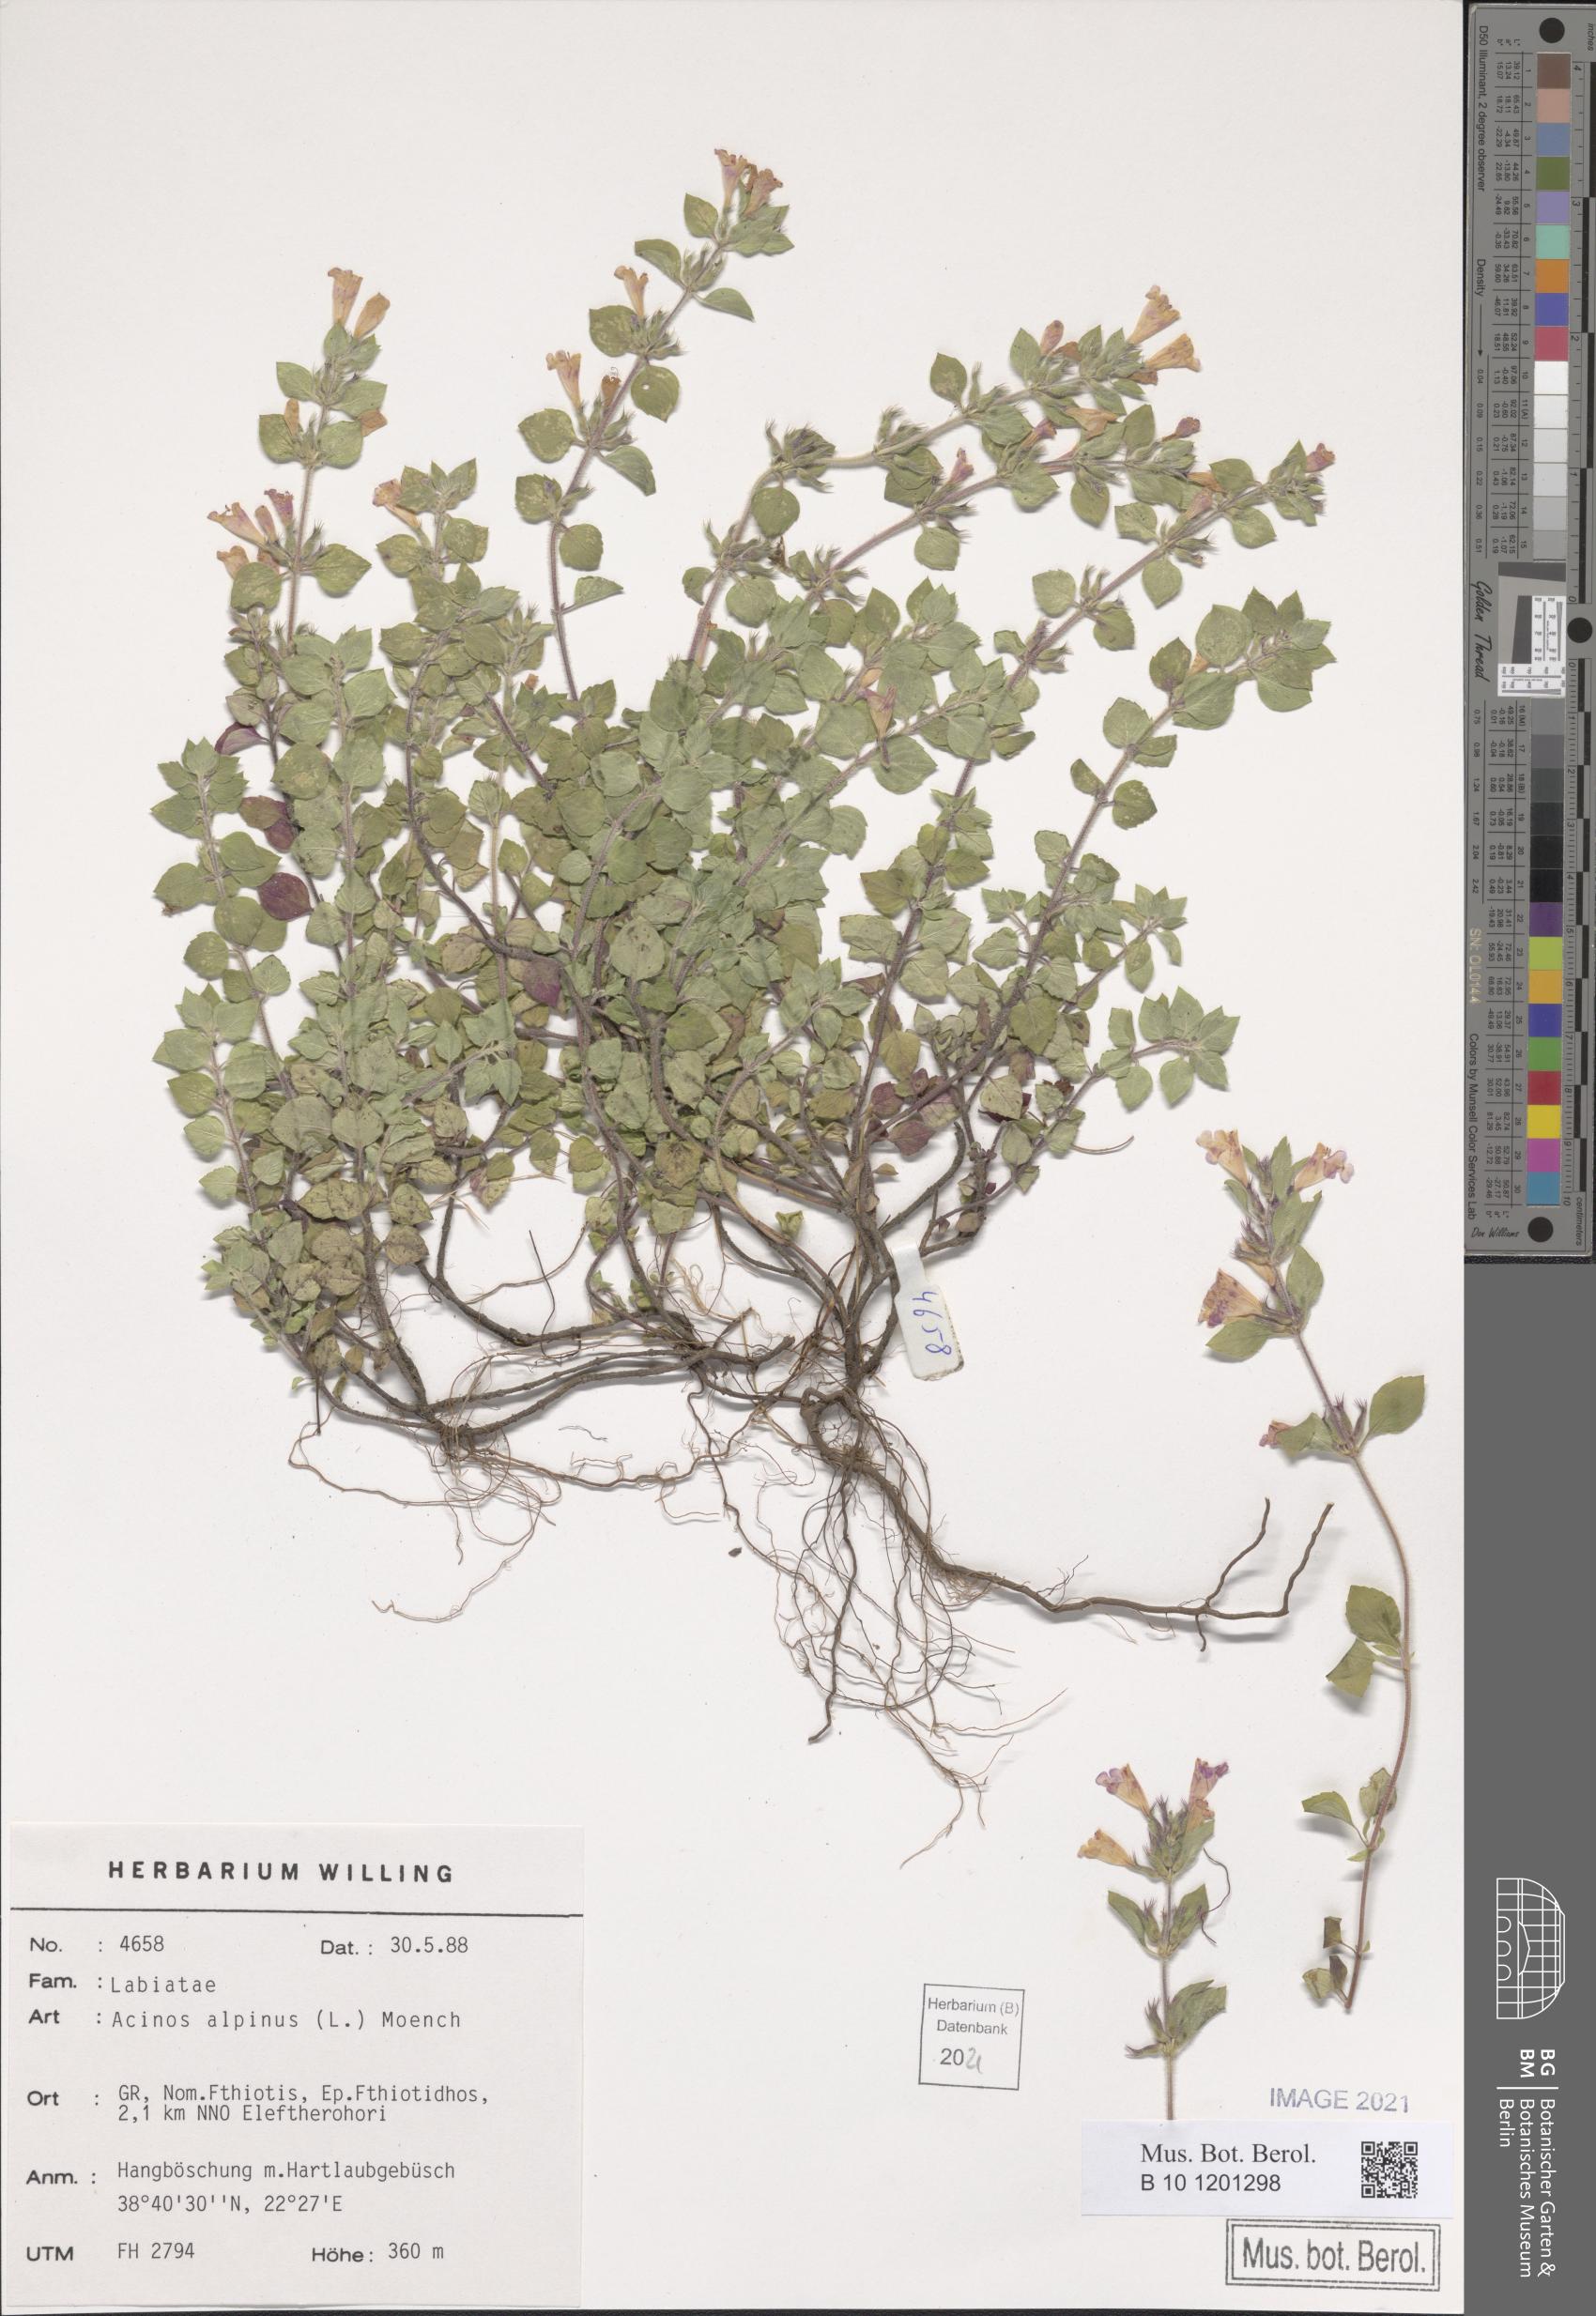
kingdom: Plantae
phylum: Tracheophyta
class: Magnoliopsida
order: Lamiales
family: Lamiaceae
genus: Clinopodium
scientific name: Clinopodium alpinum
